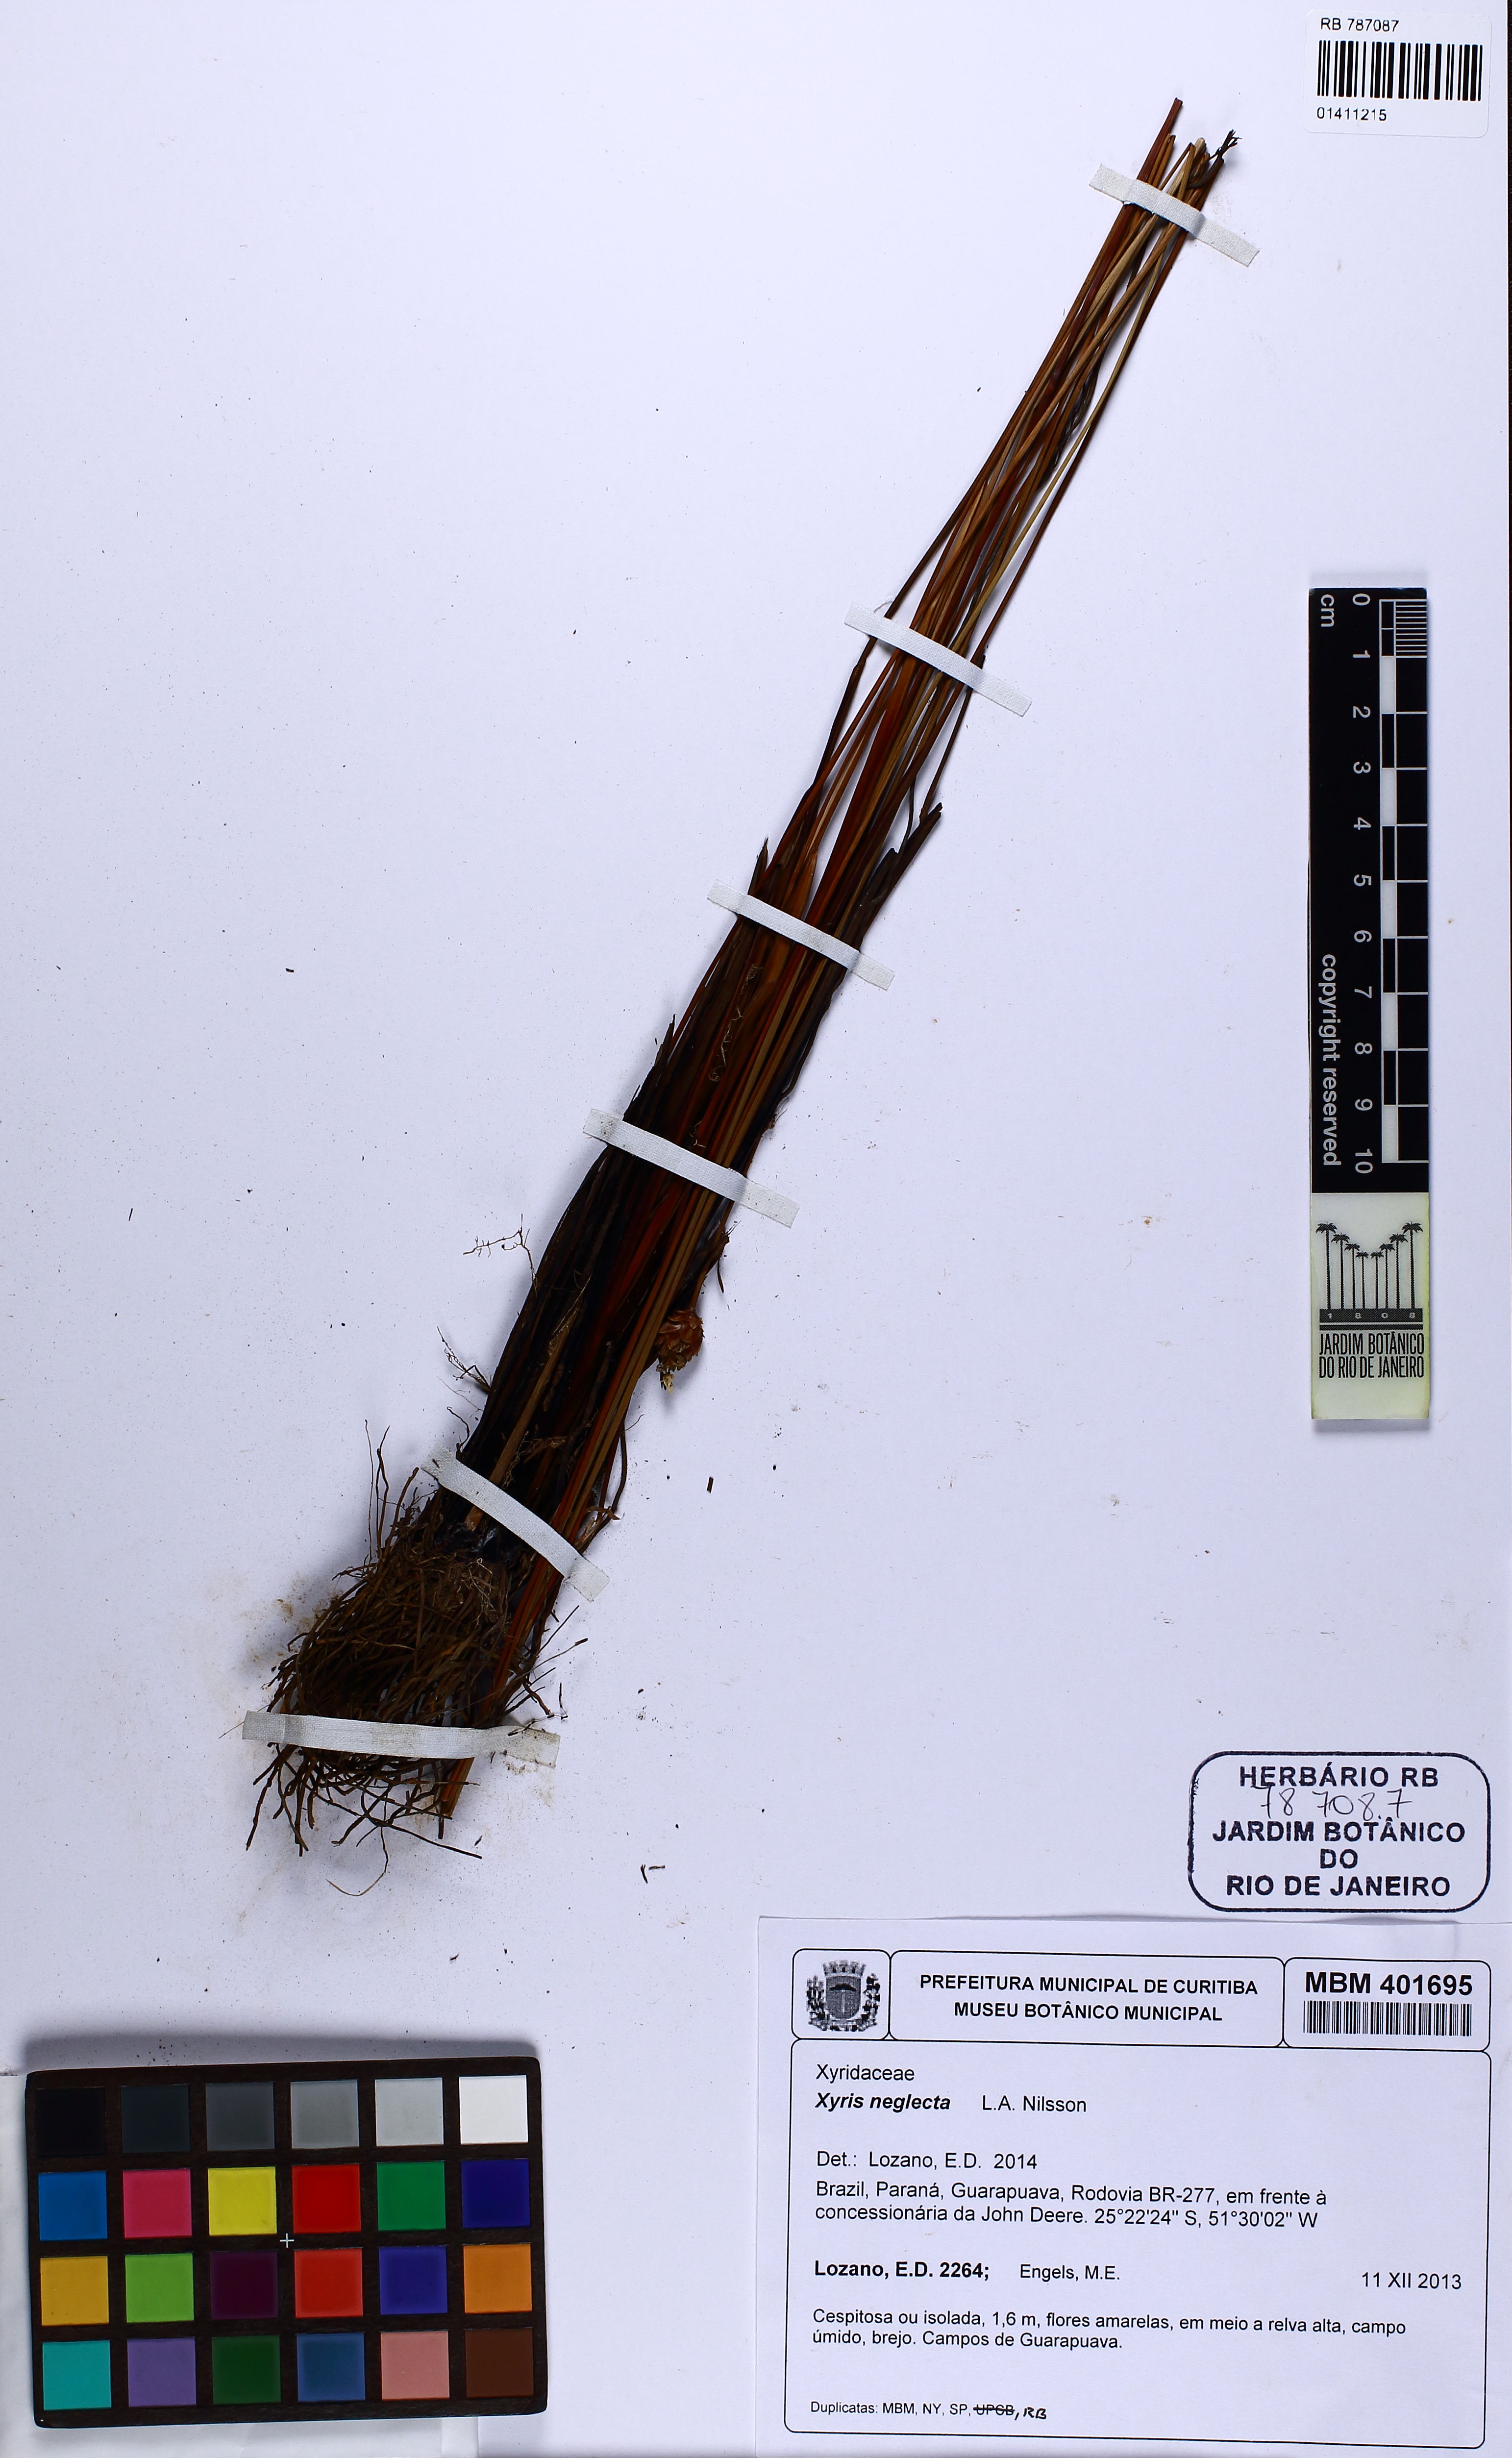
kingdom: Plantae
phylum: Tracheophyta
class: Liliopsida
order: Poales
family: Xyridaceae
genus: Xyris
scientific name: Xyris neglecta
